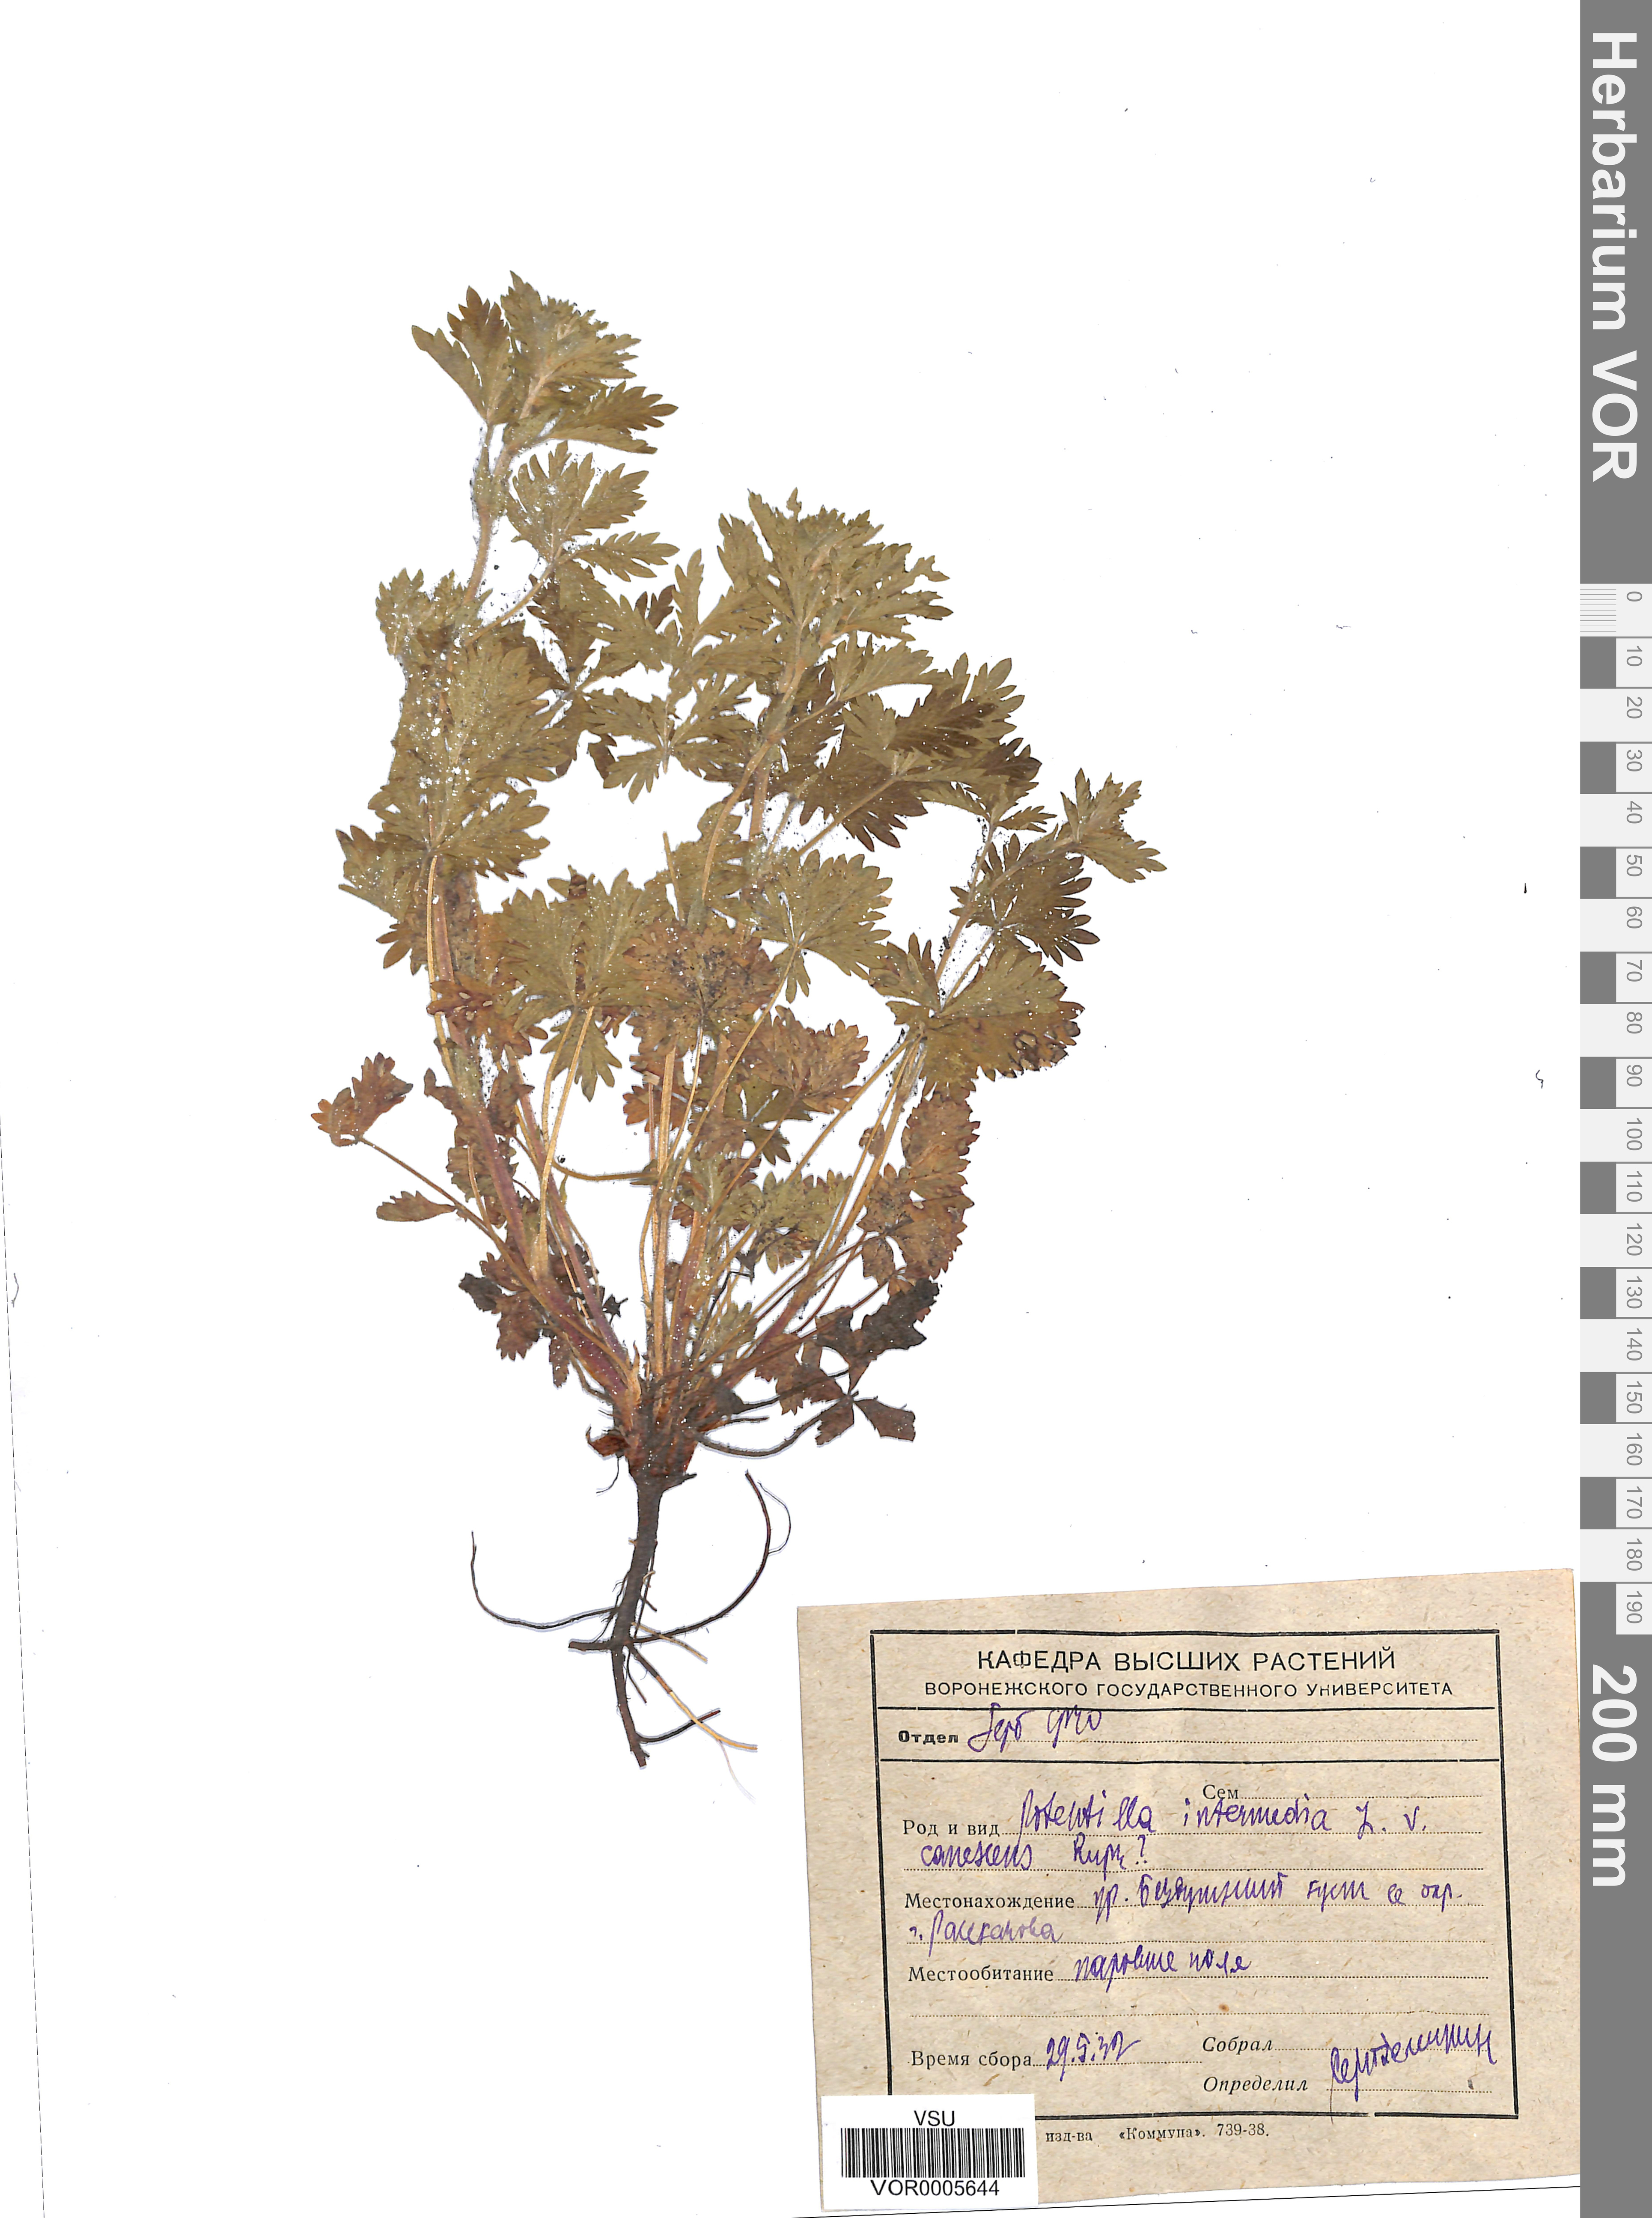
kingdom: Plantae
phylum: Tracheophyta
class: Magnoliopsida
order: Rosales
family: Rosaceae
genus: Potentilla
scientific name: Potentilla norvegica
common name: Ternate-leaved cinquefoil
